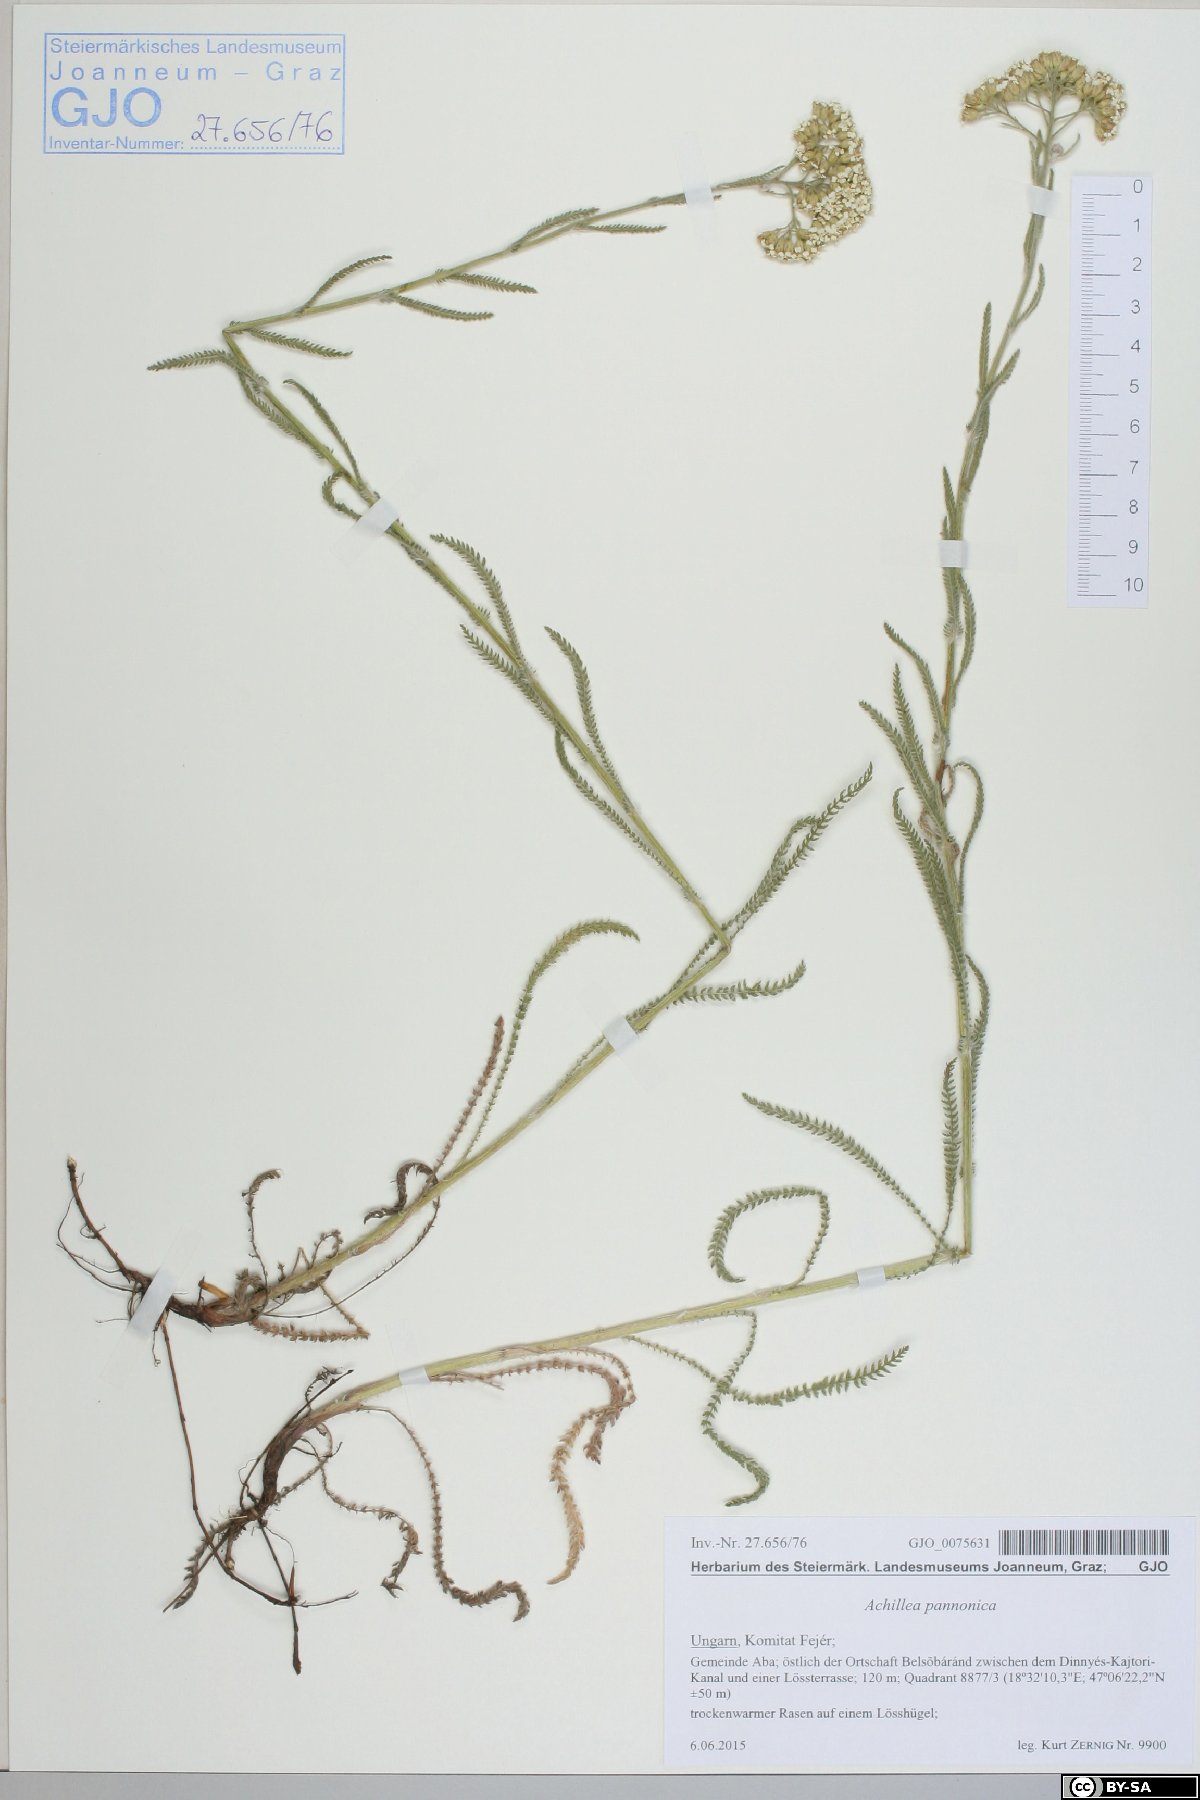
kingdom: Plantae
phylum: Tracheophyta
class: Magnoliopsida
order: Asterales
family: Asteraceae
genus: Achillea
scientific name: Achillea pannonica
